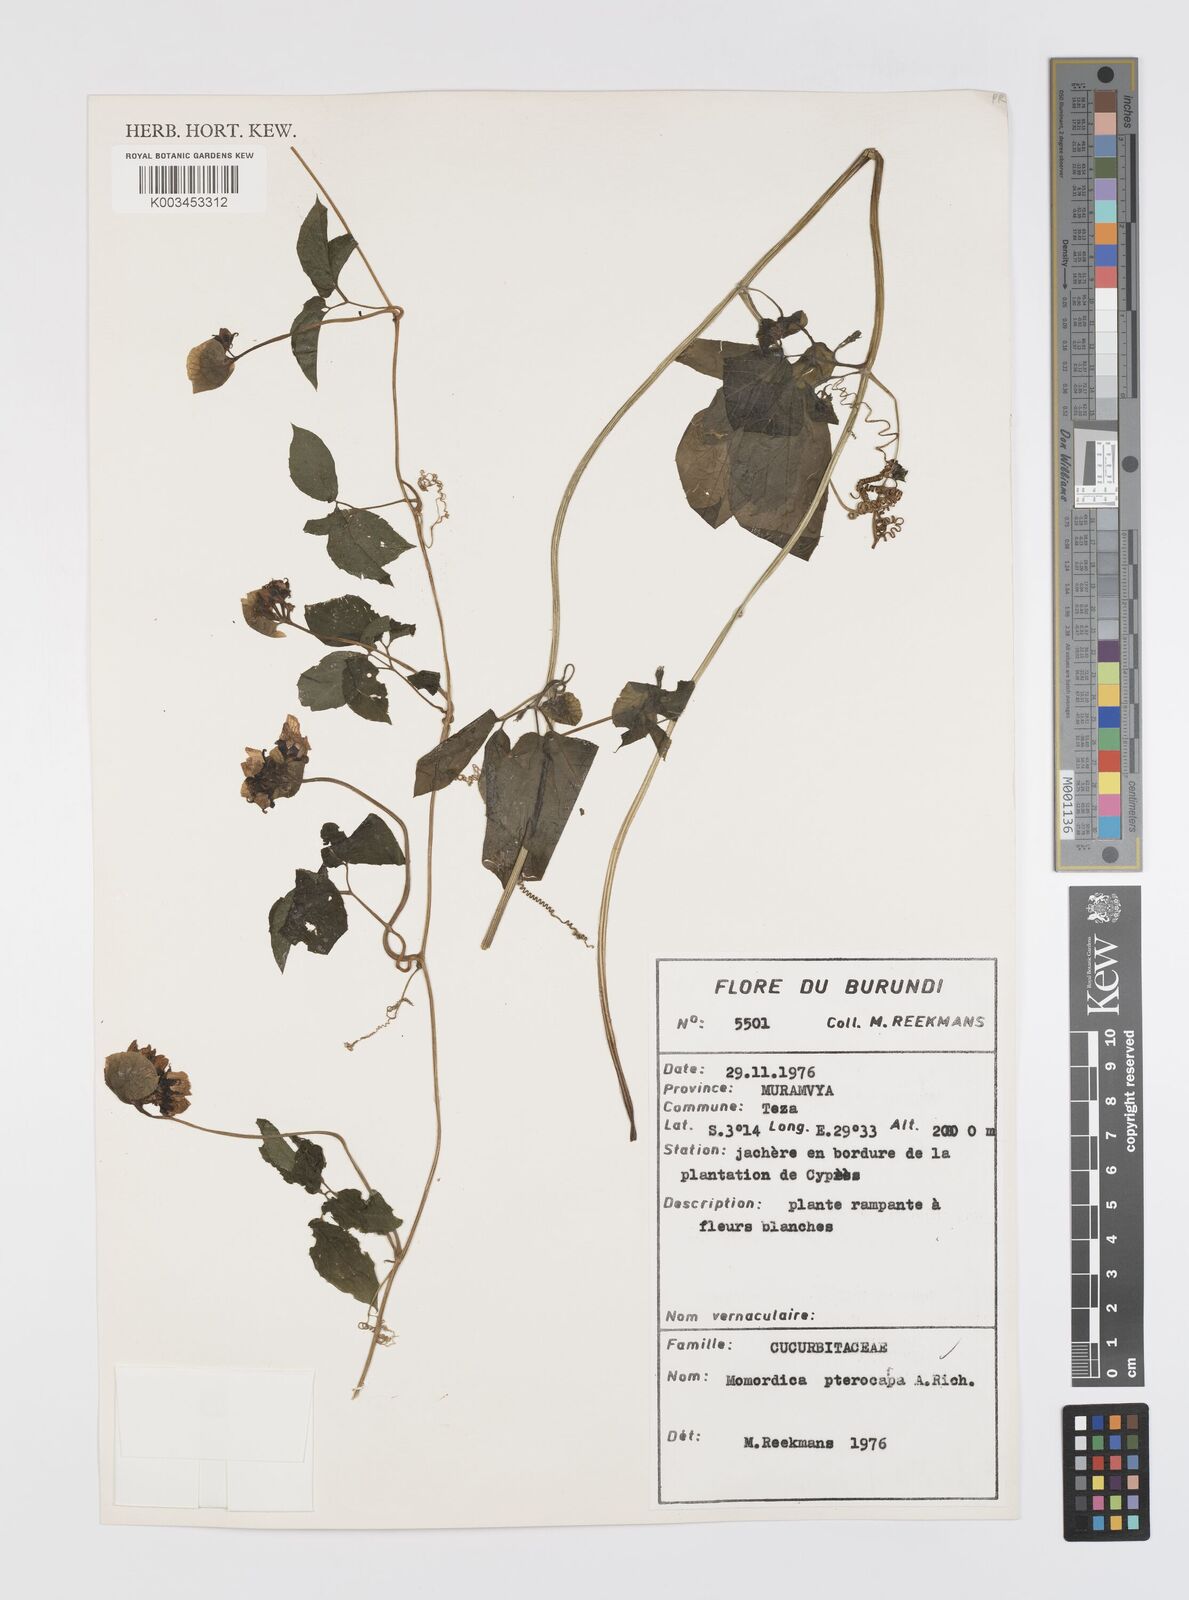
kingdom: Plantae
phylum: Tracheophyta
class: Magnoliopsida
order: Cucurbitales
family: Cucurbitaceae
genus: Momordica
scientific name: Momordica pterocarpa
